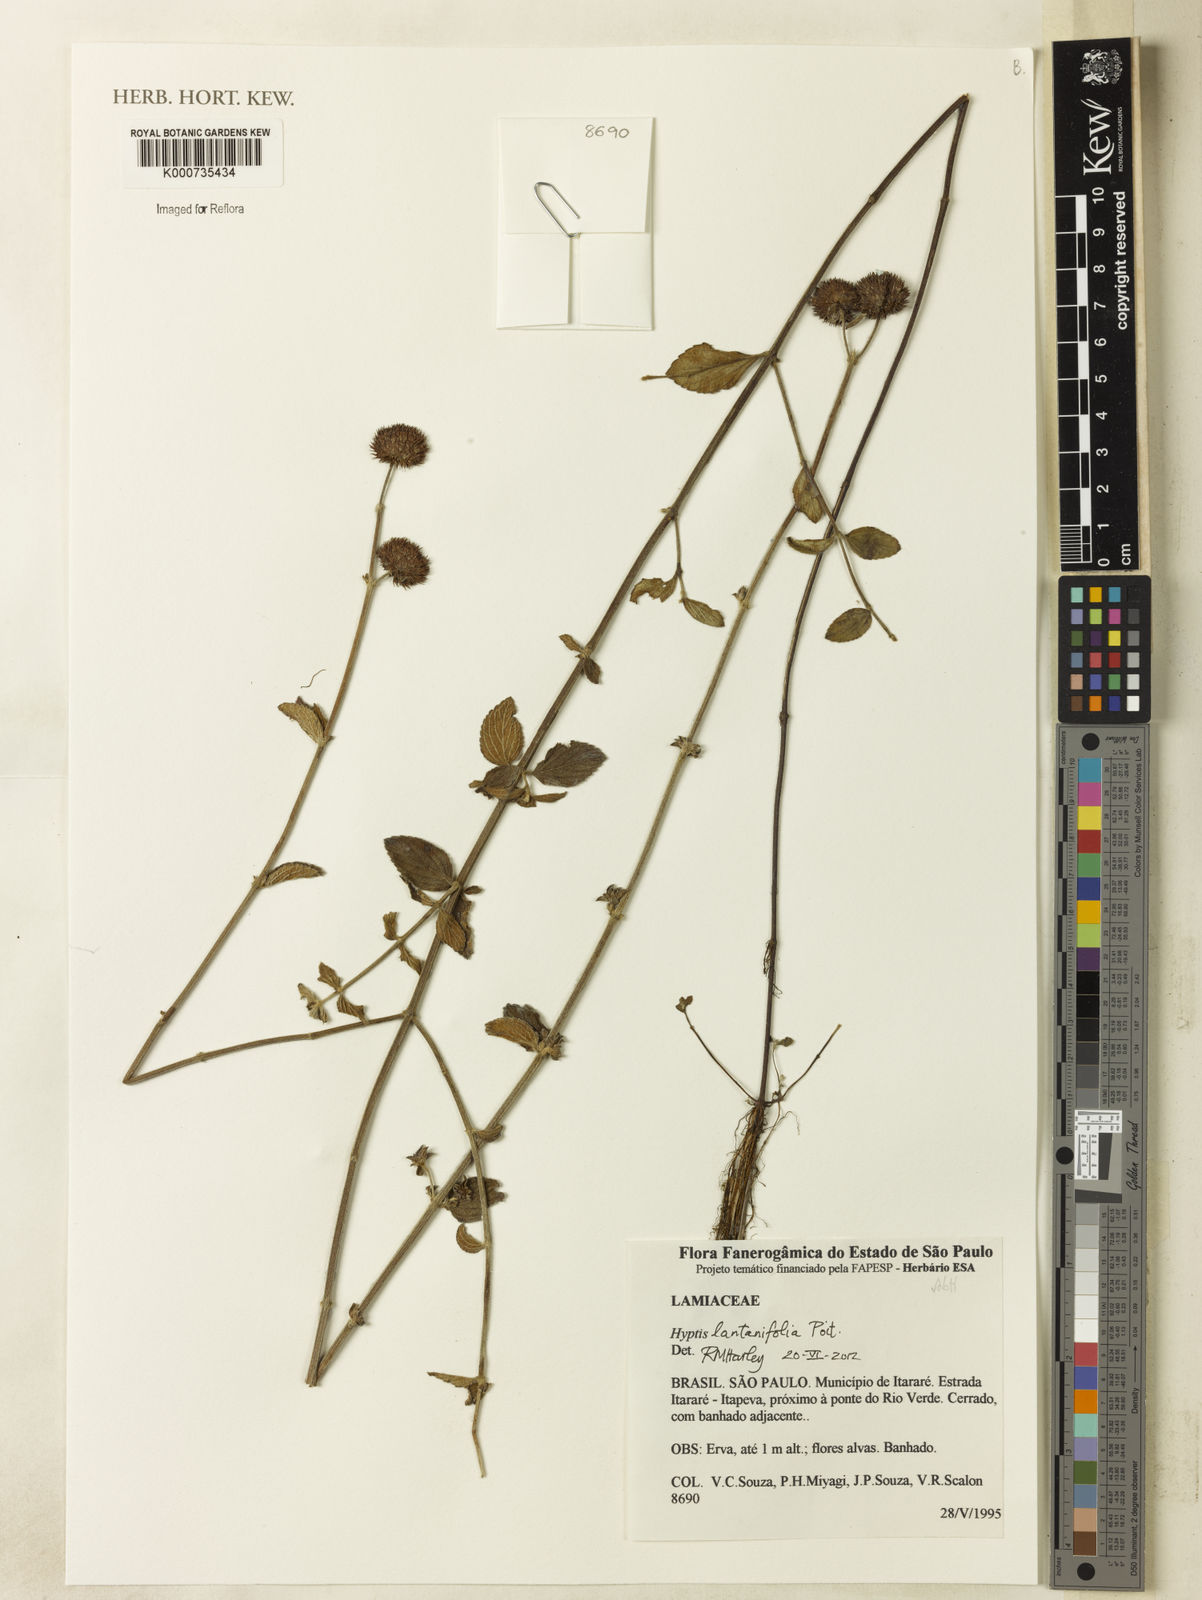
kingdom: Plantae
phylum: Tracheophyta
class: Magnoliopsida
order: Lamiales
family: Lamiaceae
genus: Hyptis
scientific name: Hyptis lantanifolia
